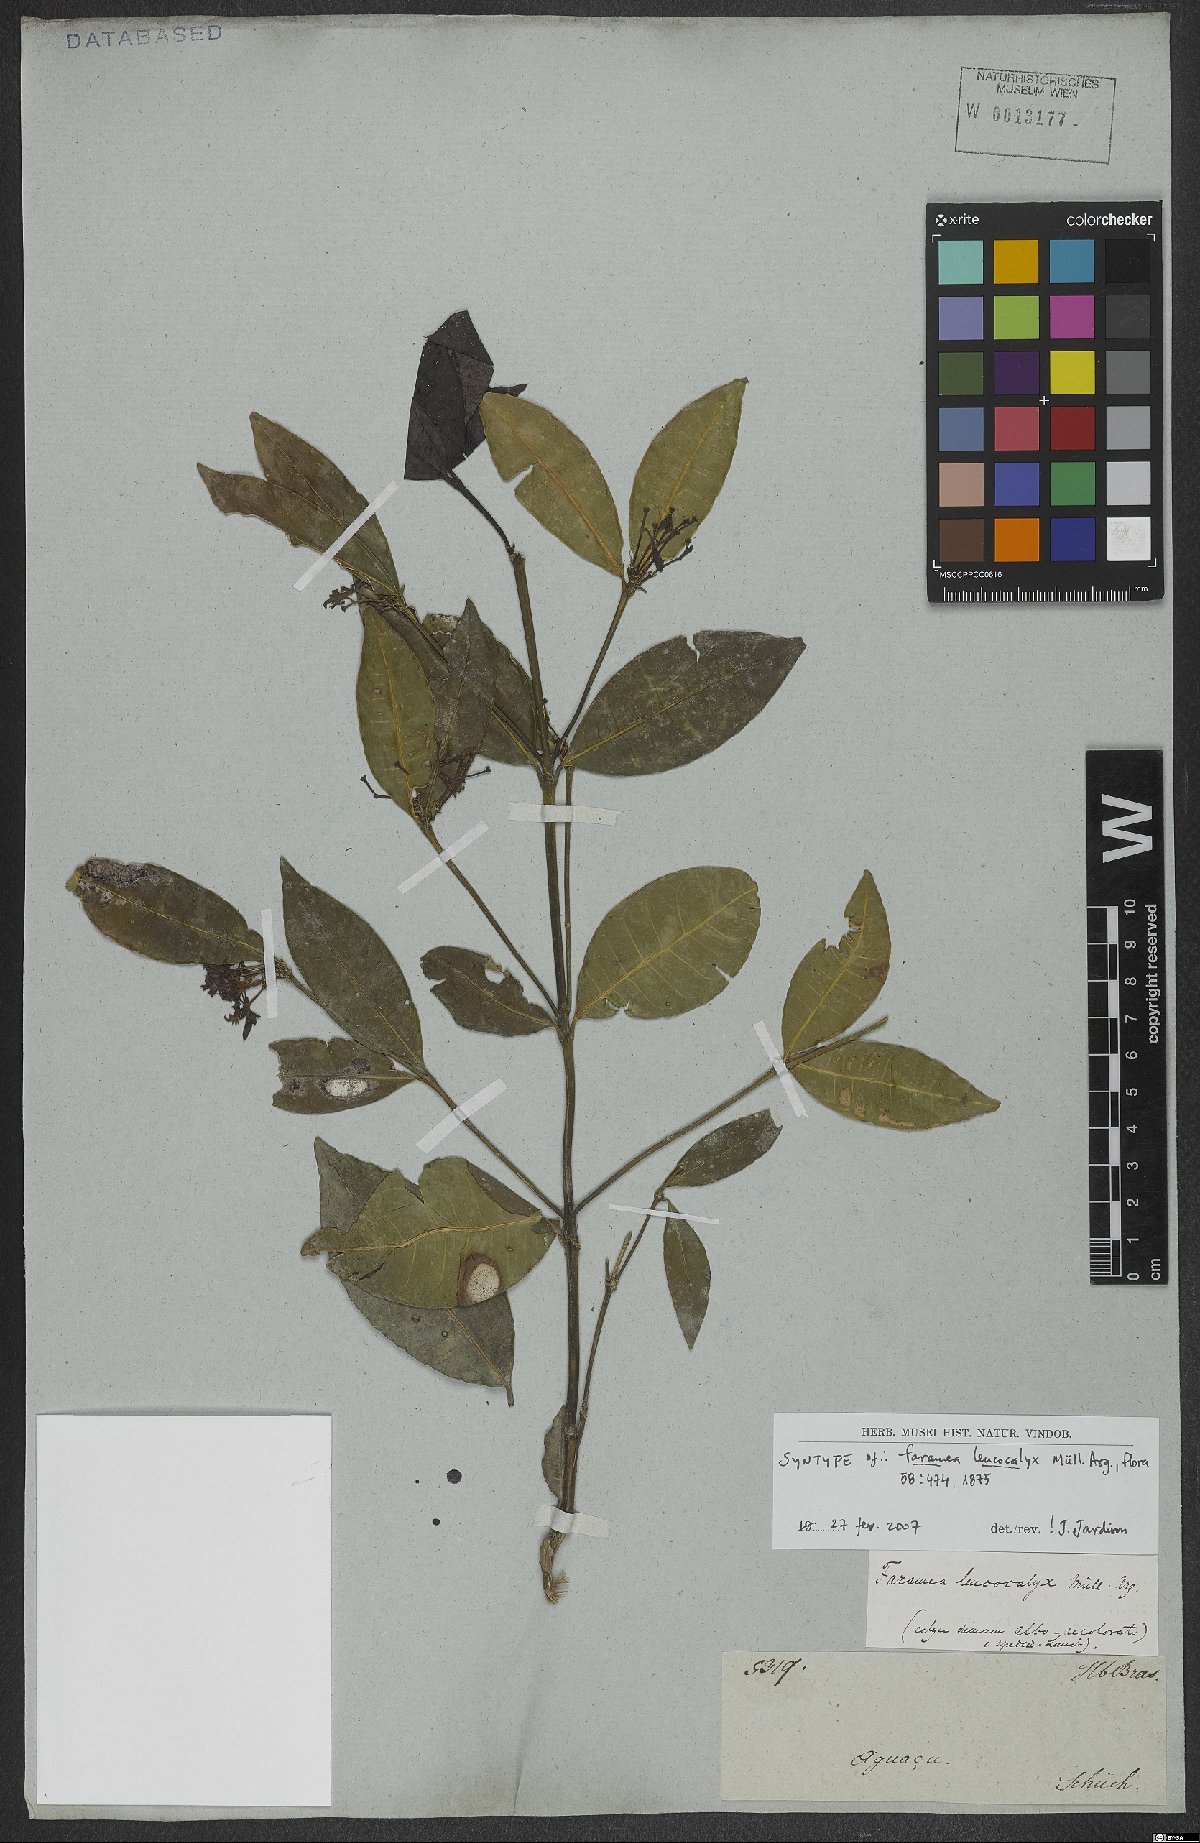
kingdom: Plantae
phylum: Tracheophyta
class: Magnoliopsida
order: Gentianales
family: Rubiaceae
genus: Faramea
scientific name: Faramea leucocalyx
